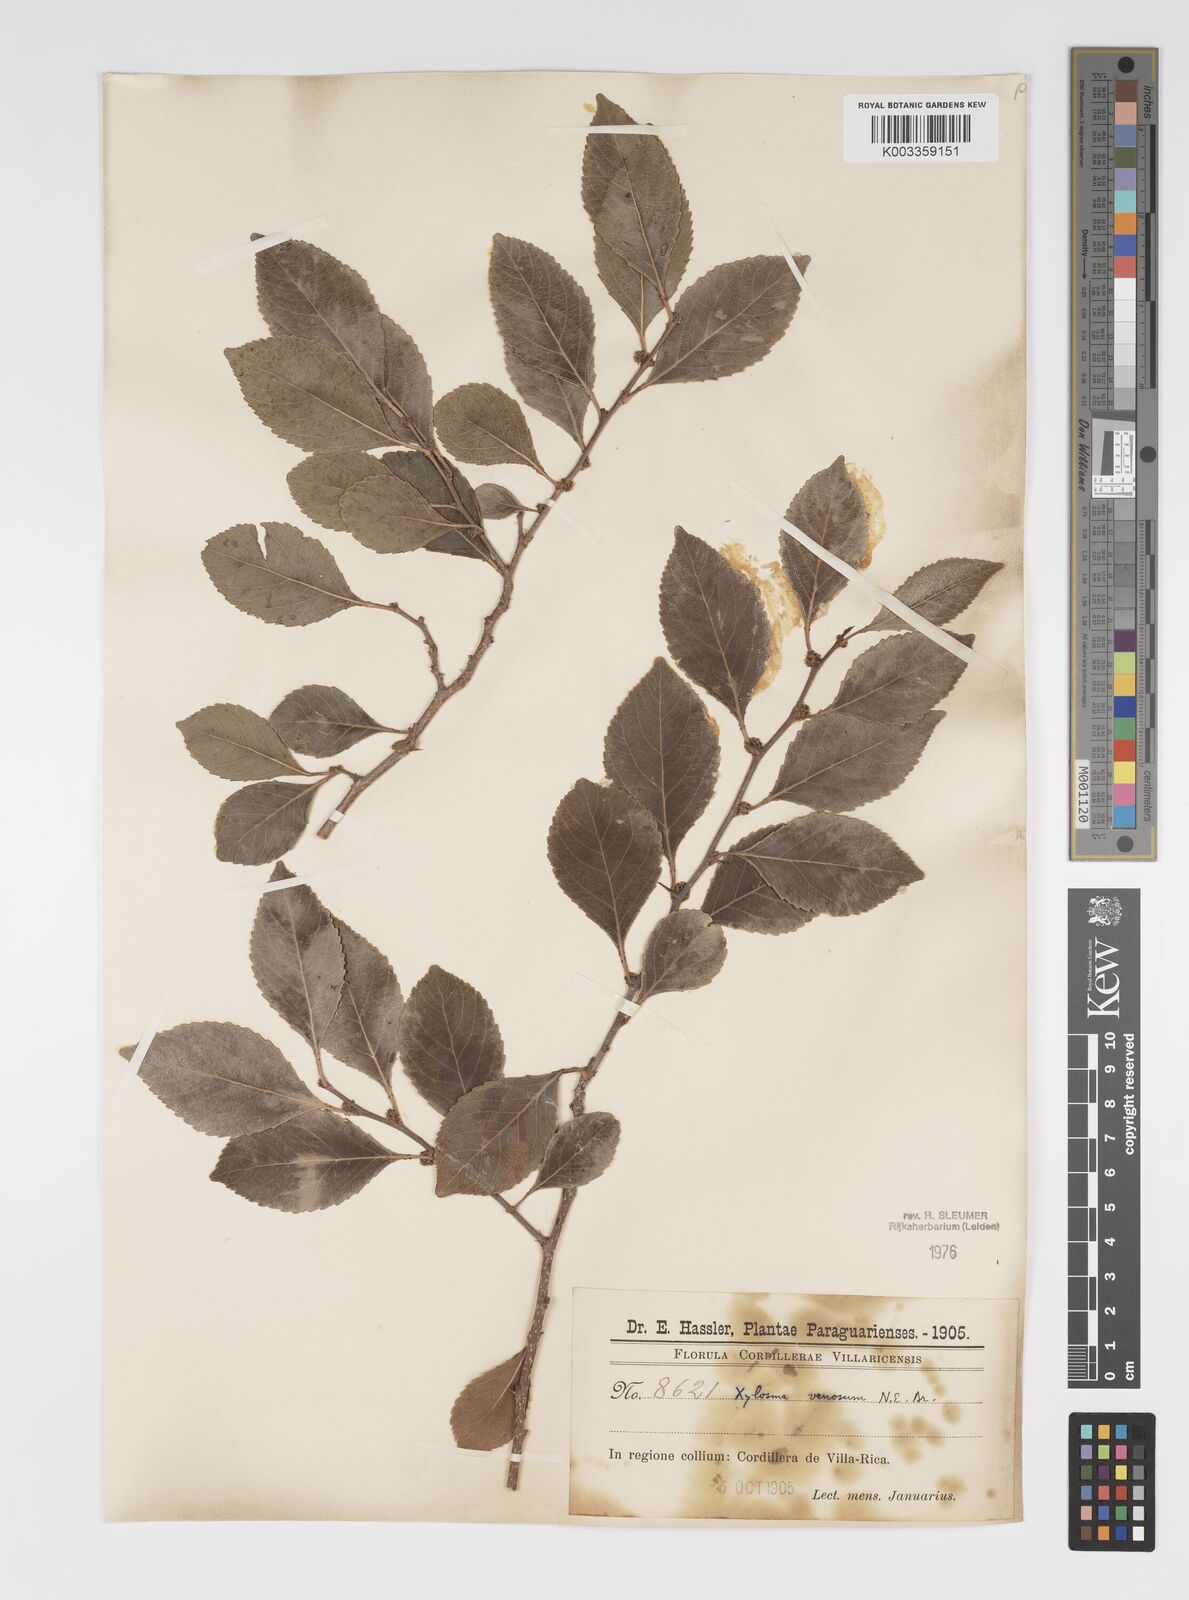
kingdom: Plantae
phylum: Tracheophyta
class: Magnoliopsida
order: Malpighiales
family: Salicaceae
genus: Xylosma
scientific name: Xylosma venosa
